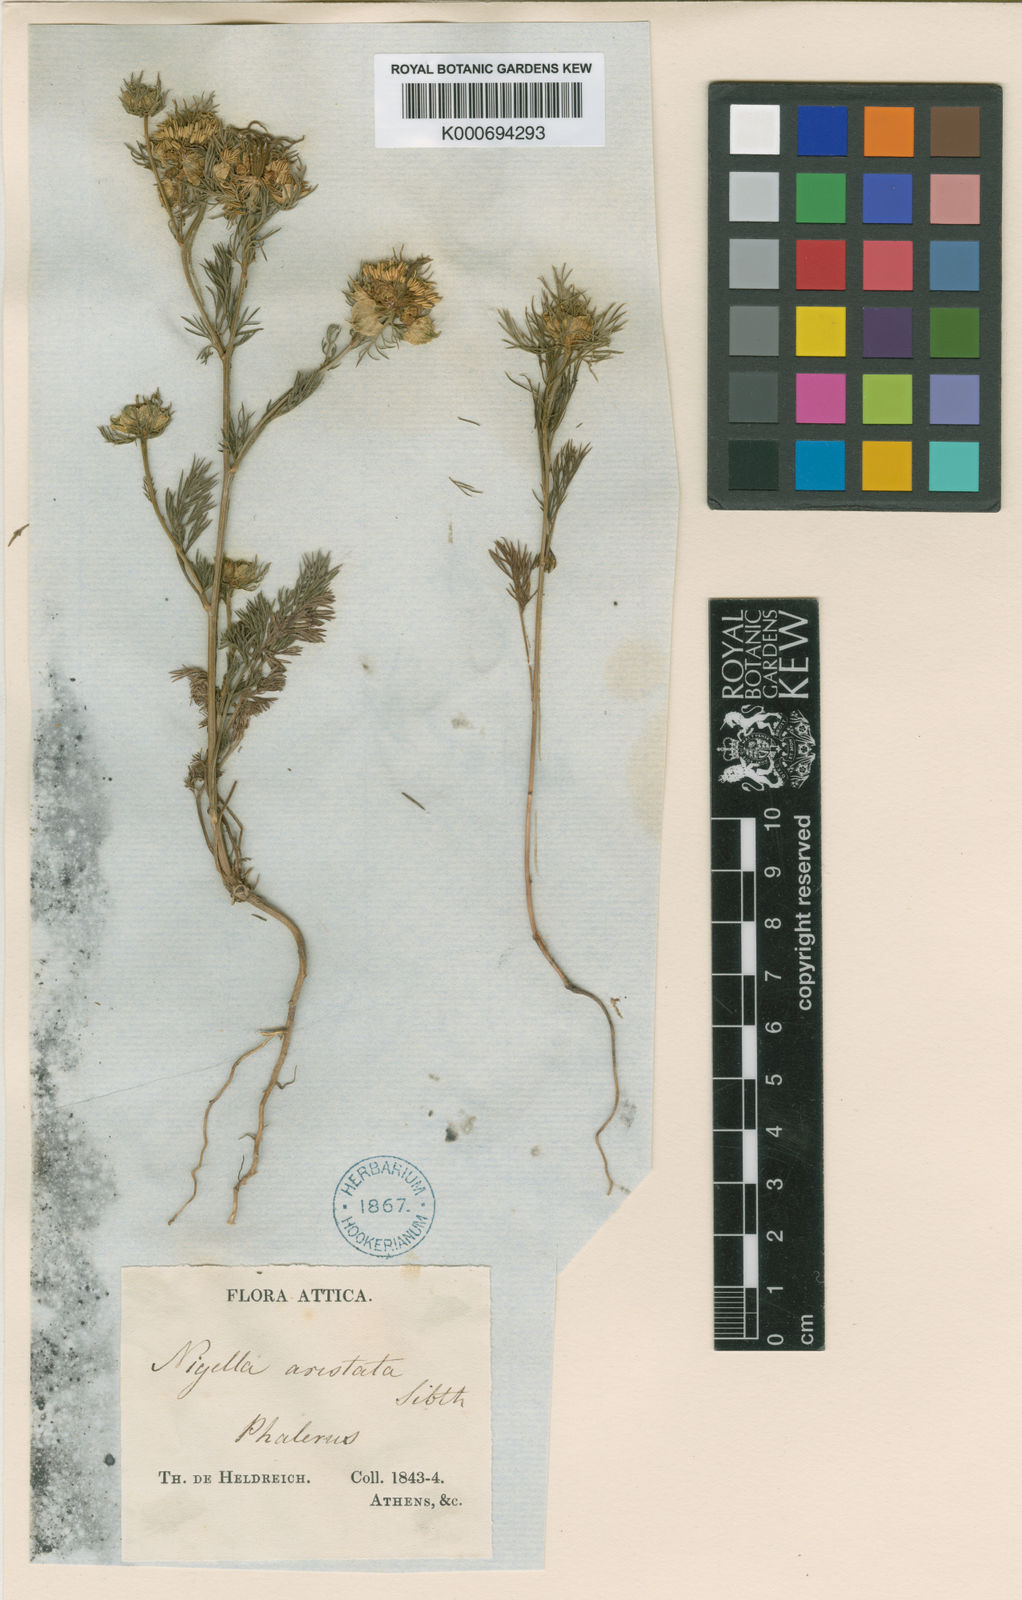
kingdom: Plantae
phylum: Tracheophyta
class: Magnoliopsida
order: Ranunculales
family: Ranunculaceae
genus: Nigella
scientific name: Nigella arvensis
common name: Wild fennel-flower
